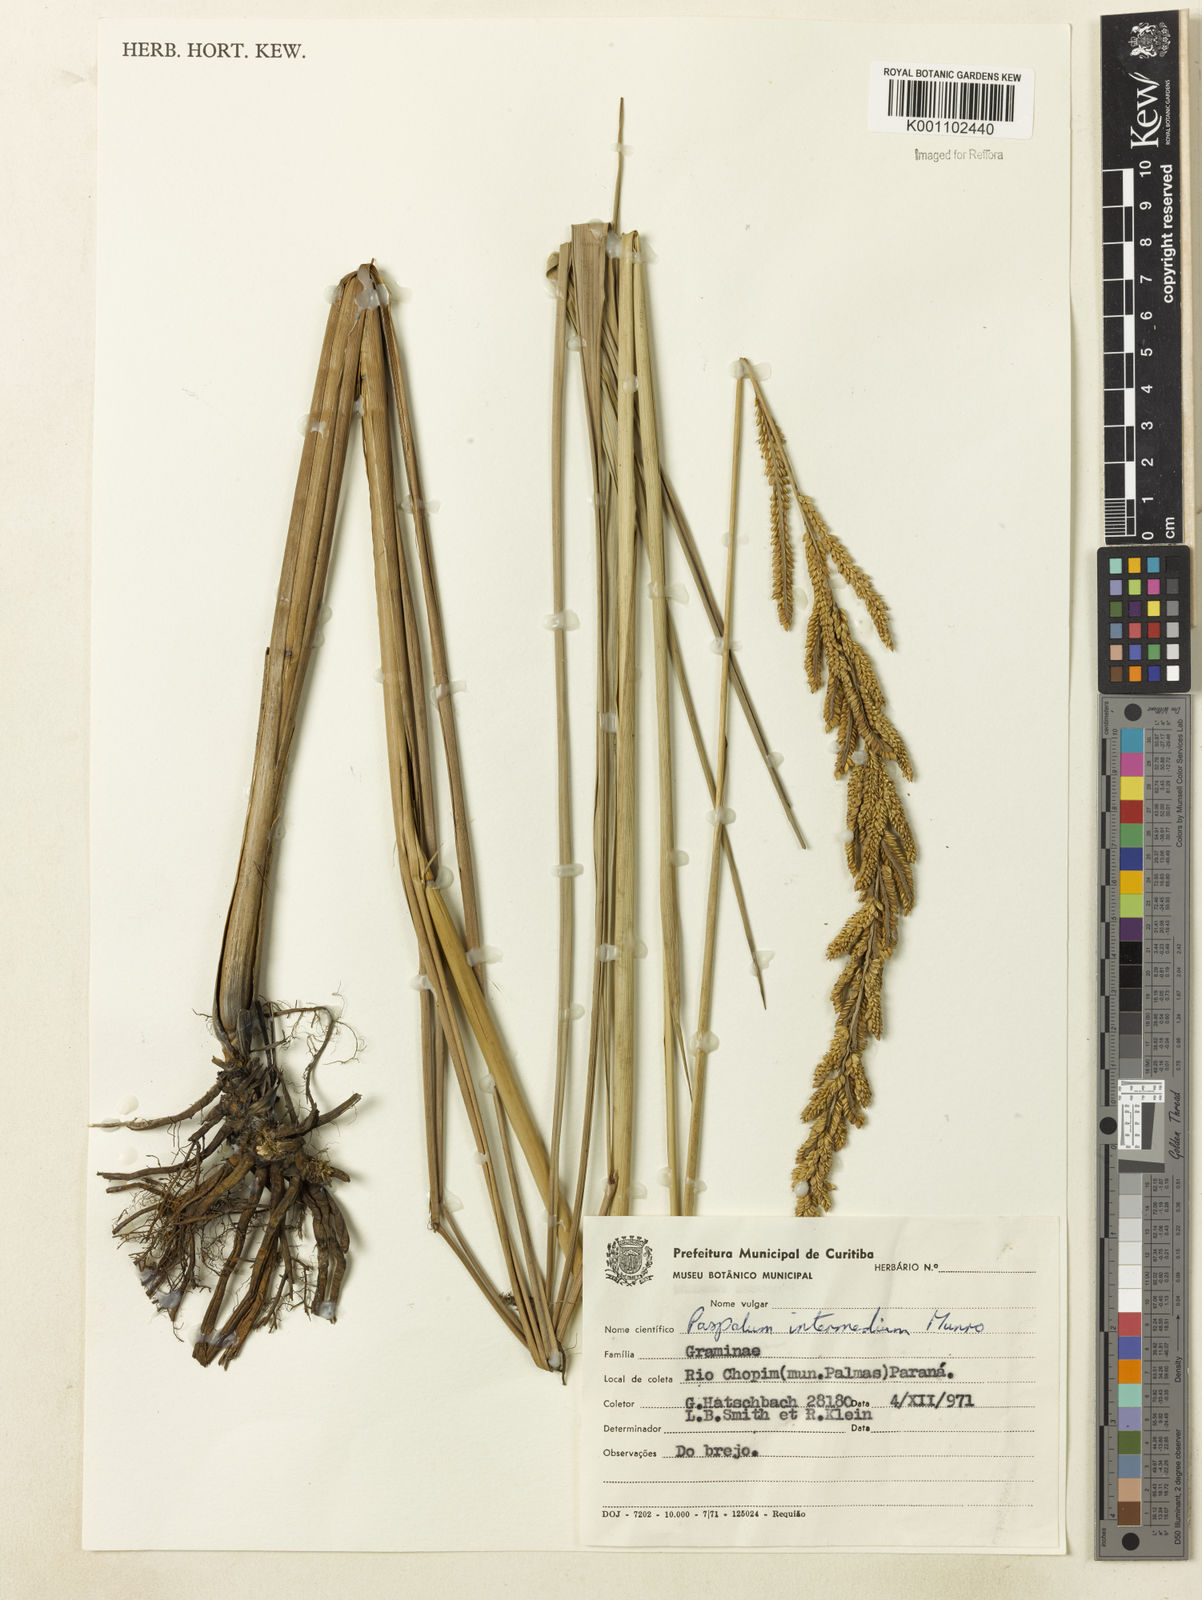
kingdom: Plantae
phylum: Tracheophyta
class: Liliopsida
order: Poales
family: Poaceae
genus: Paspalum
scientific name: Paspalum exaltatum
